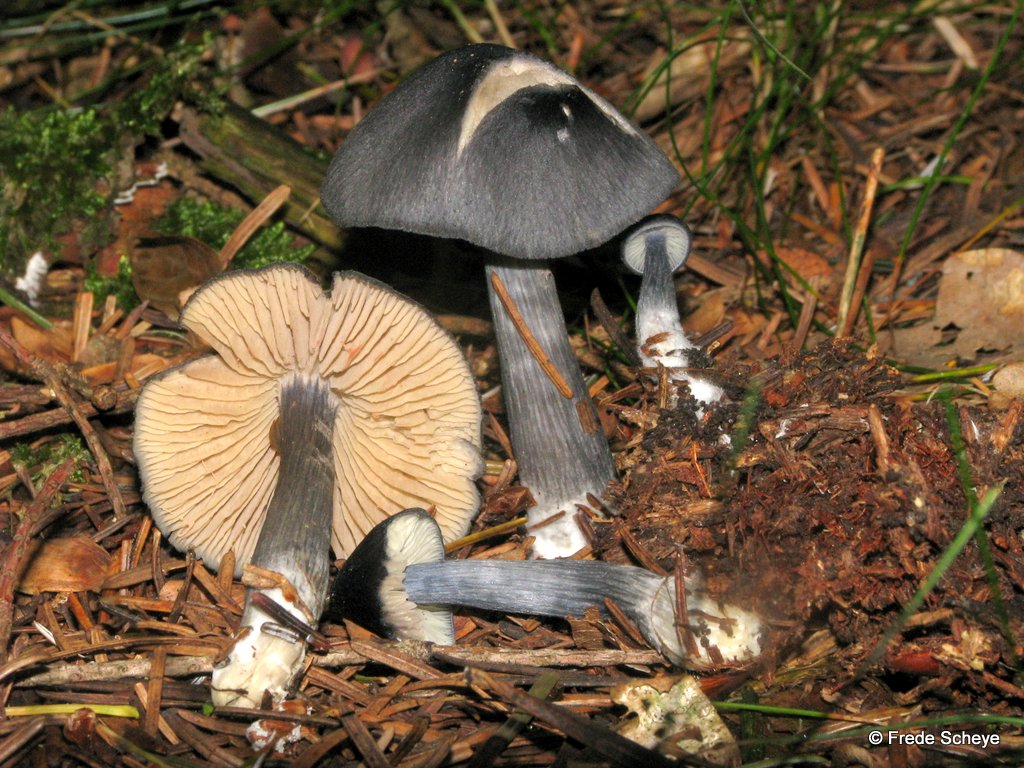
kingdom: Fungi
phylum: Basidiomycota
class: Agaricomycetes
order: Agaricales
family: Entolomataceae
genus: Entocybe
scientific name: Entocybe nitida
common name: stålblå rødblad
